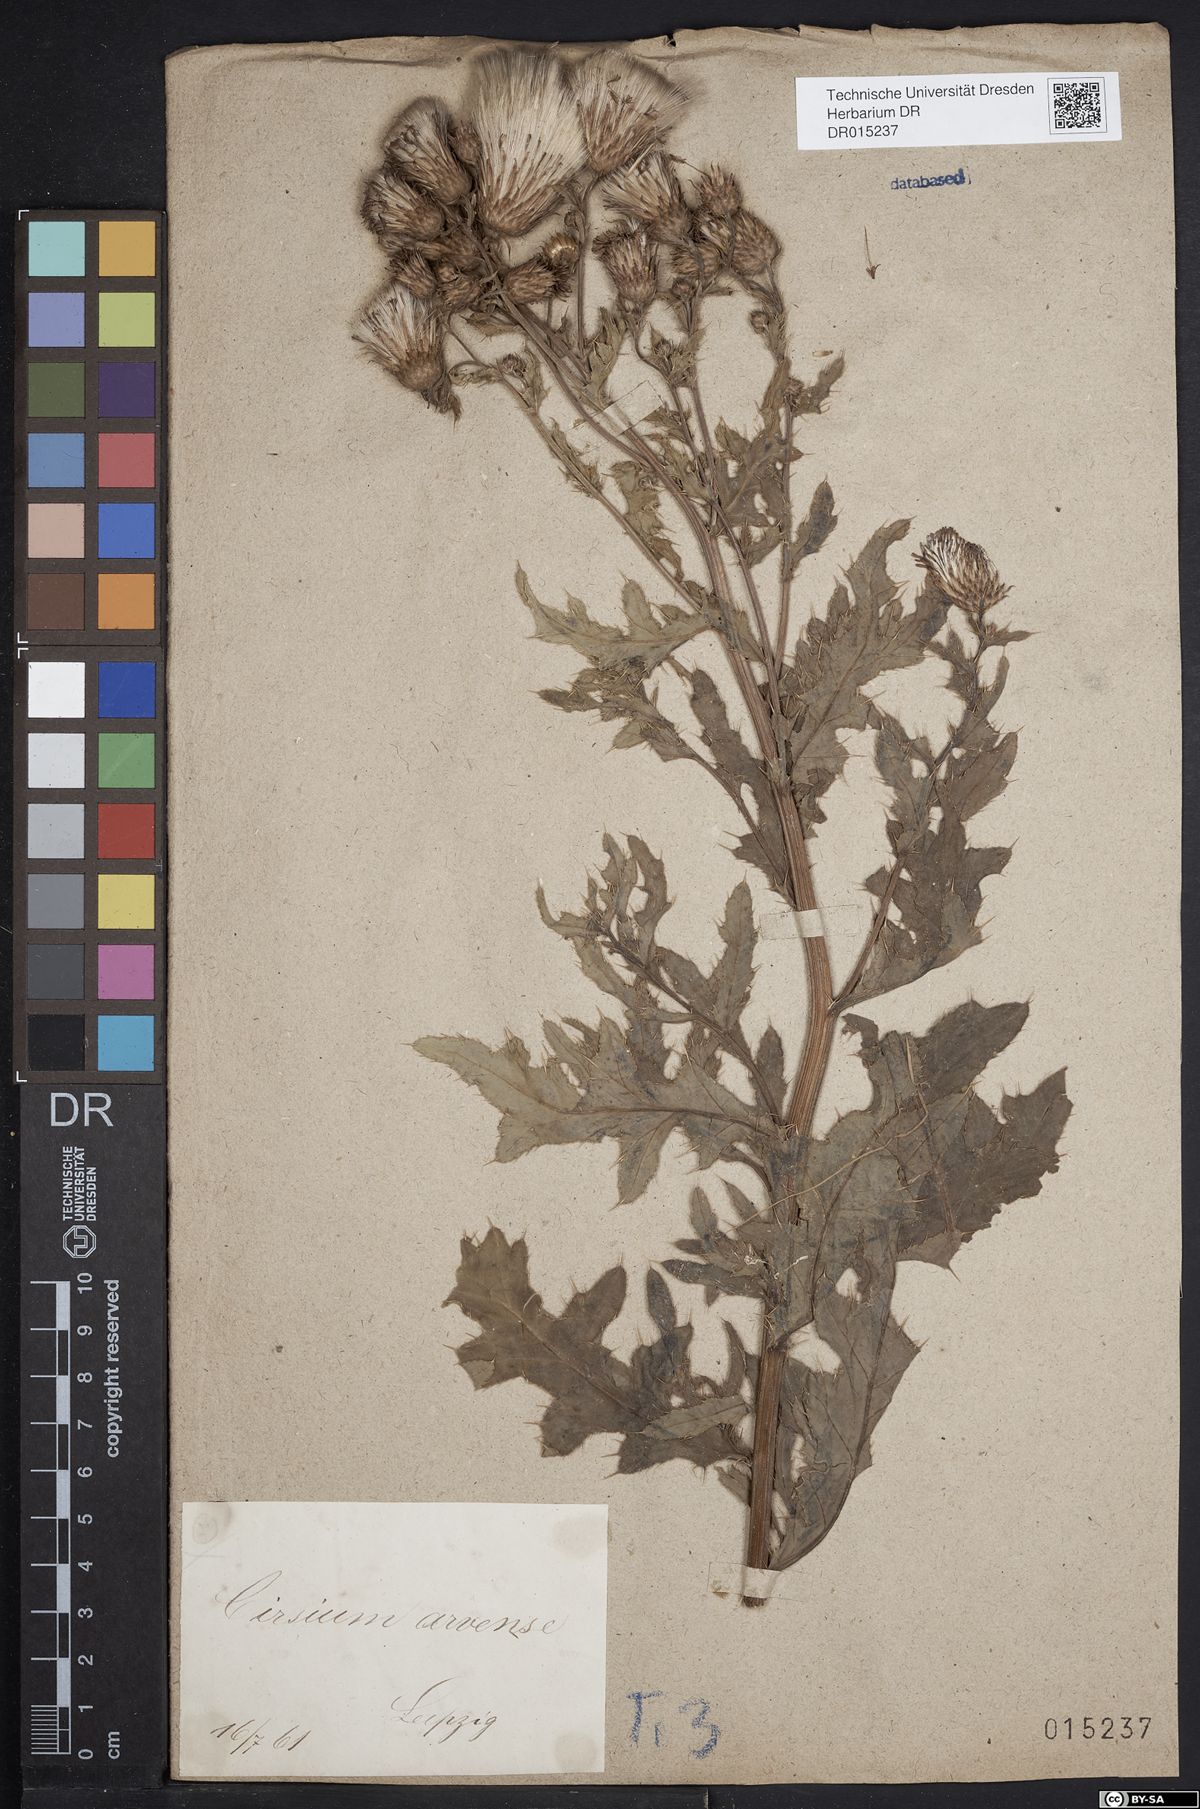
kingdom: Plantae
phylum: Tracheophyta
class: Magnoliopsida
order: Asterales
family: Asteraceae
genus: Cirsium
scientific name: Cirsium arvense
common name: Creeping thistle
